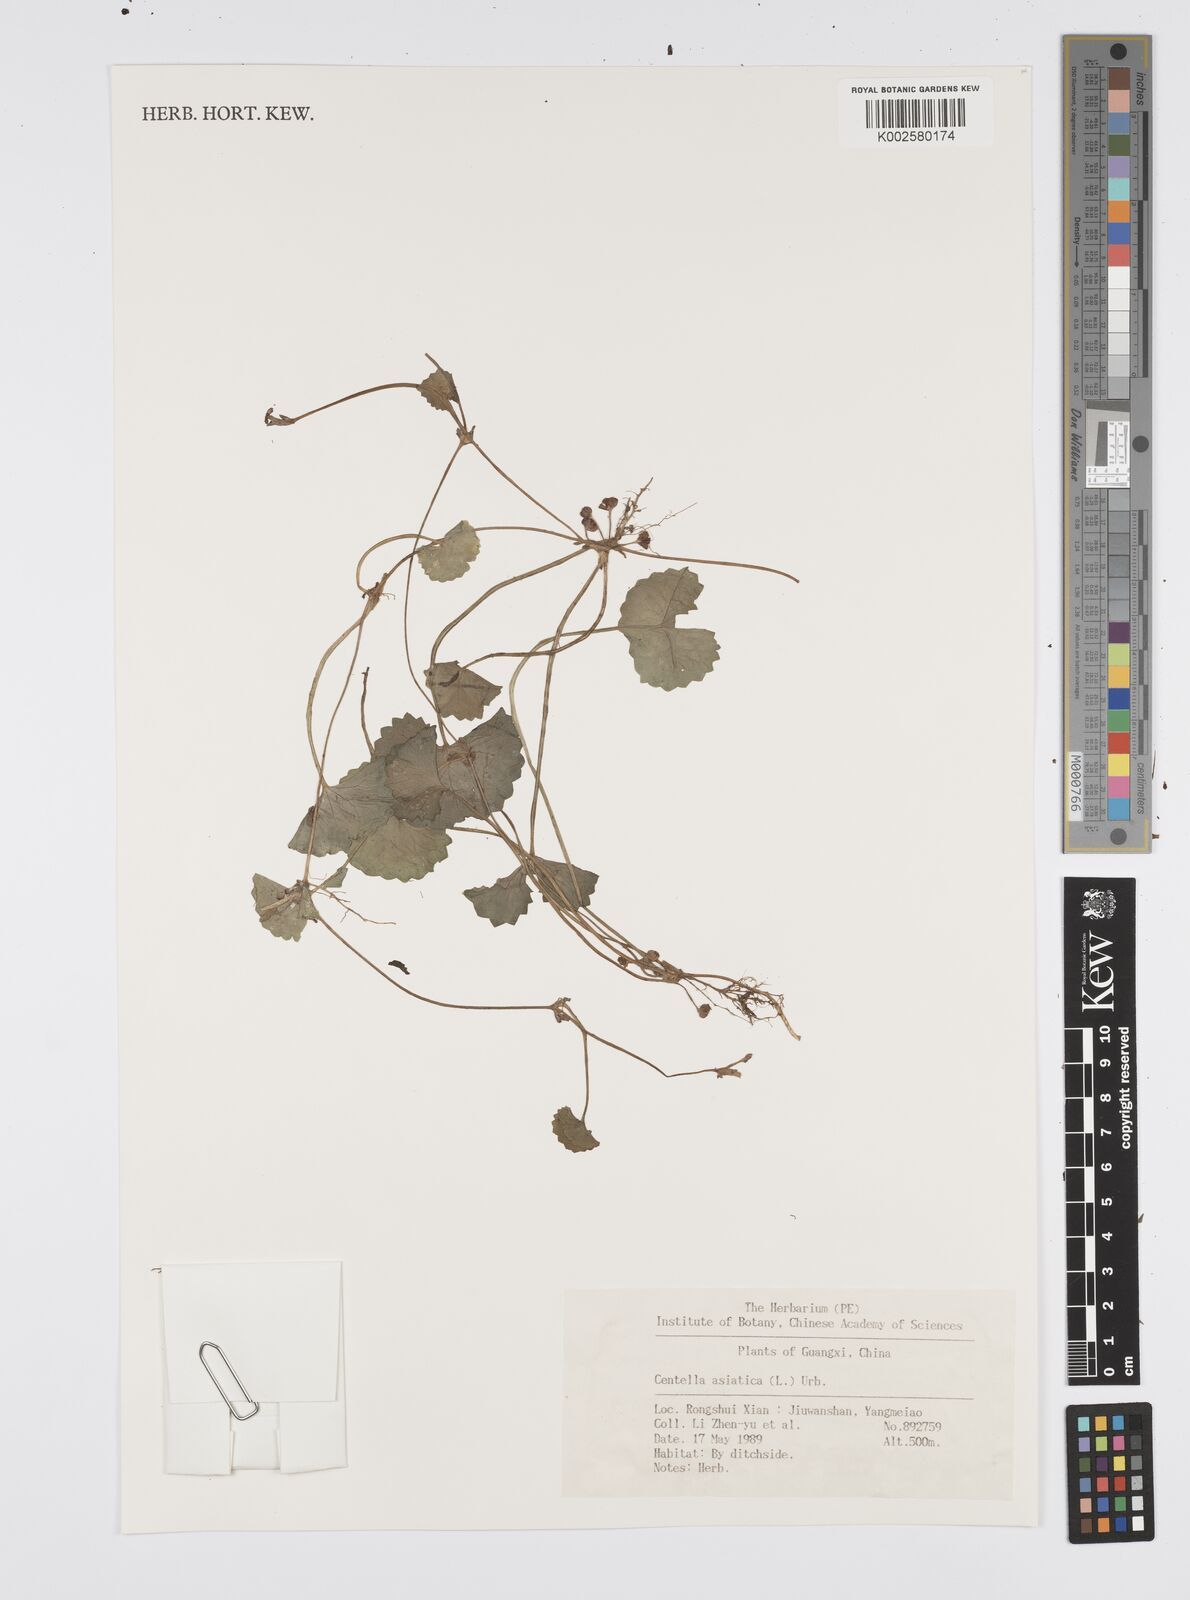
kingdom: Plantae
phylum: Tracheophyta
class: Magnoliopsida
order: Apiales
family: Apiaceae
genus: Centella
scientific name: Centella asiatica
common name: Spadeleaf
